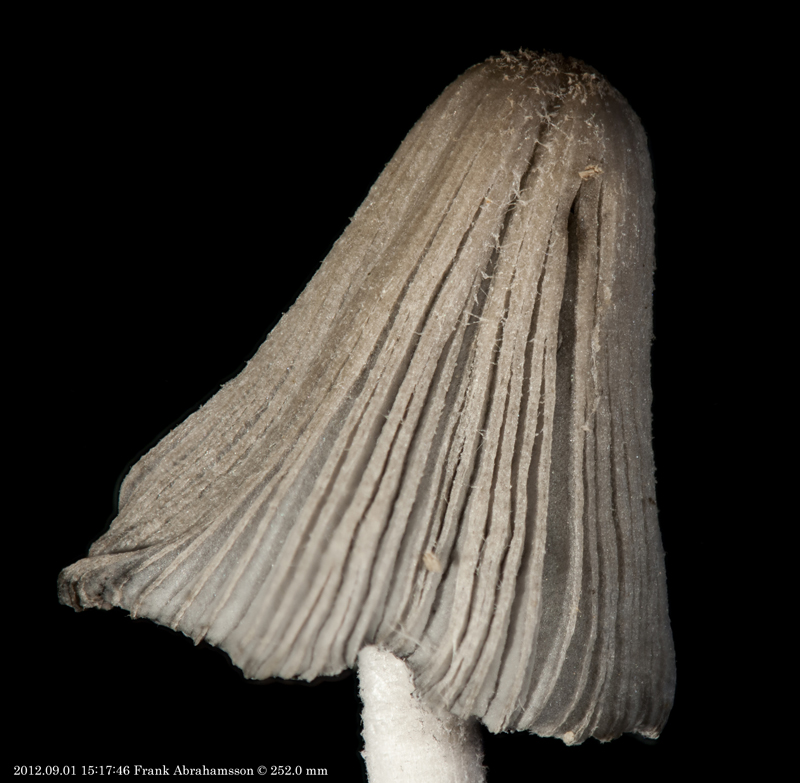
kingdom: Fungi
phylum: Basidiomycota
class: Agaricomycetes
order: Agaricales
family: Psathyrellaceae
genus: Coprinopsis
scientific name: Coprinopsis lagopus
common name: dunstokket blækhat
